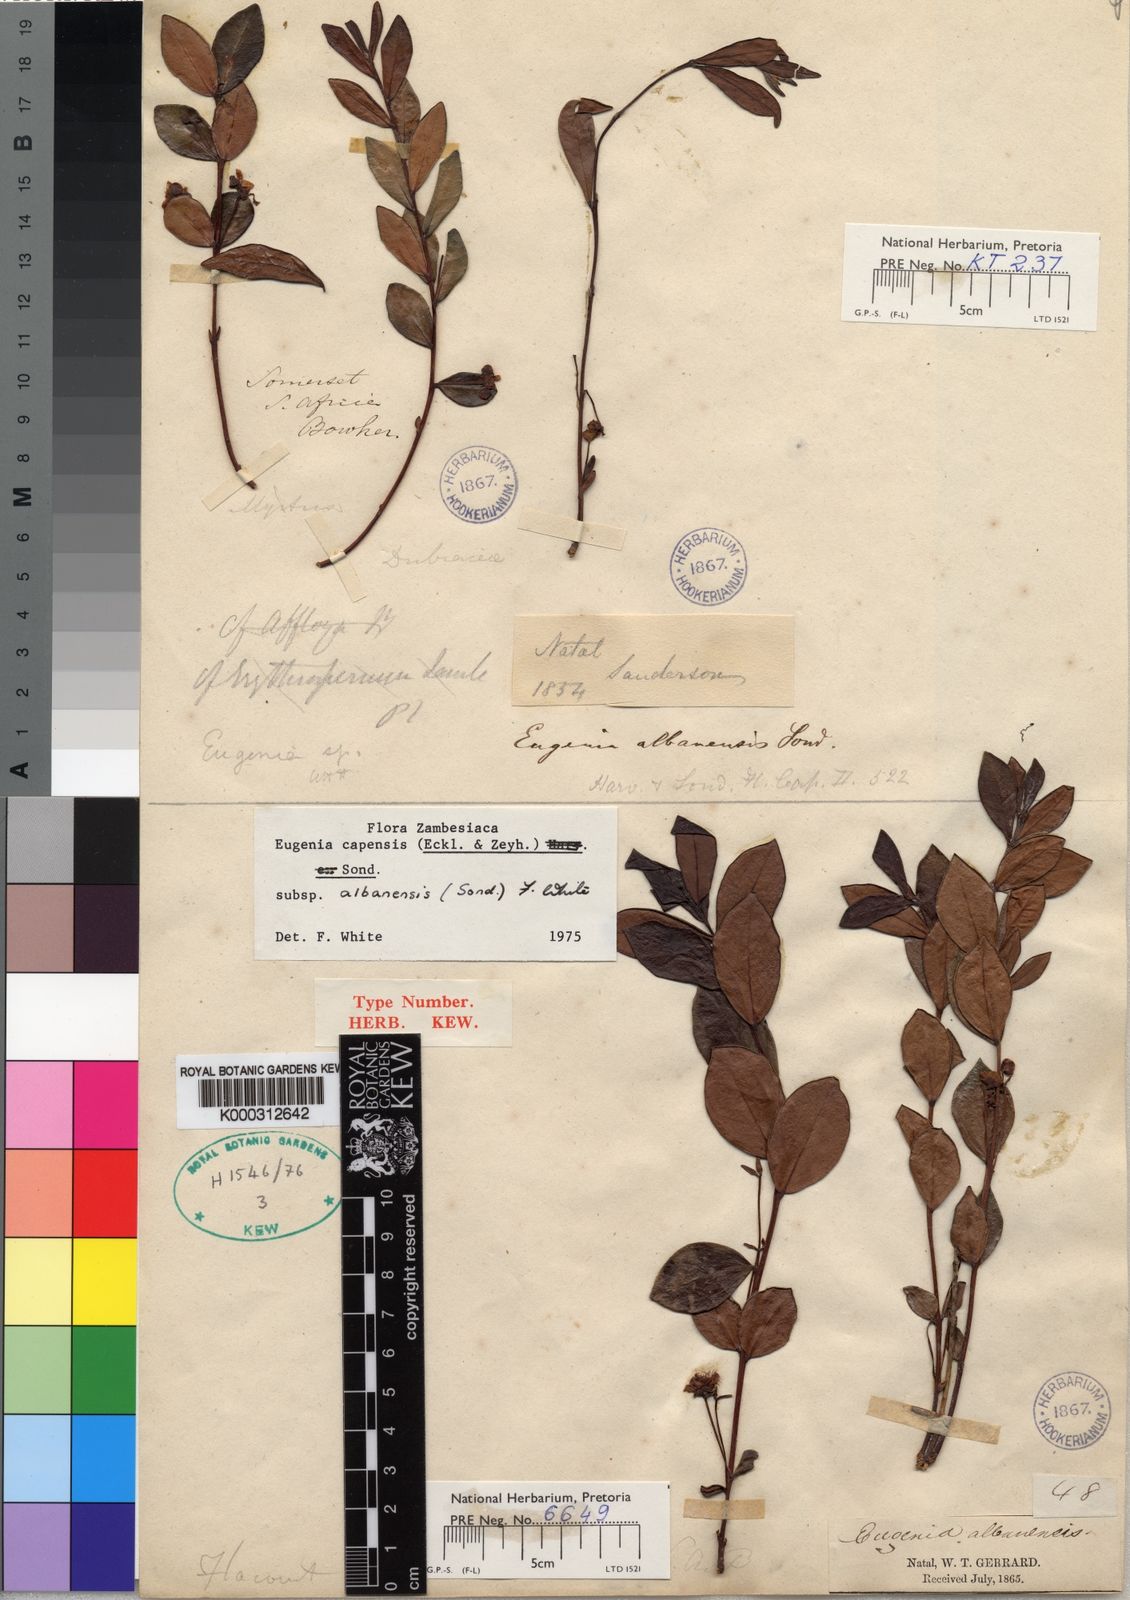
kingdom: Plantae
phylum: Tracheophyta
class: Magnoliopsida
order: Myrtales
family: Myrtaceae
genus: Eugenia
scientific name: Eugenia capensis
